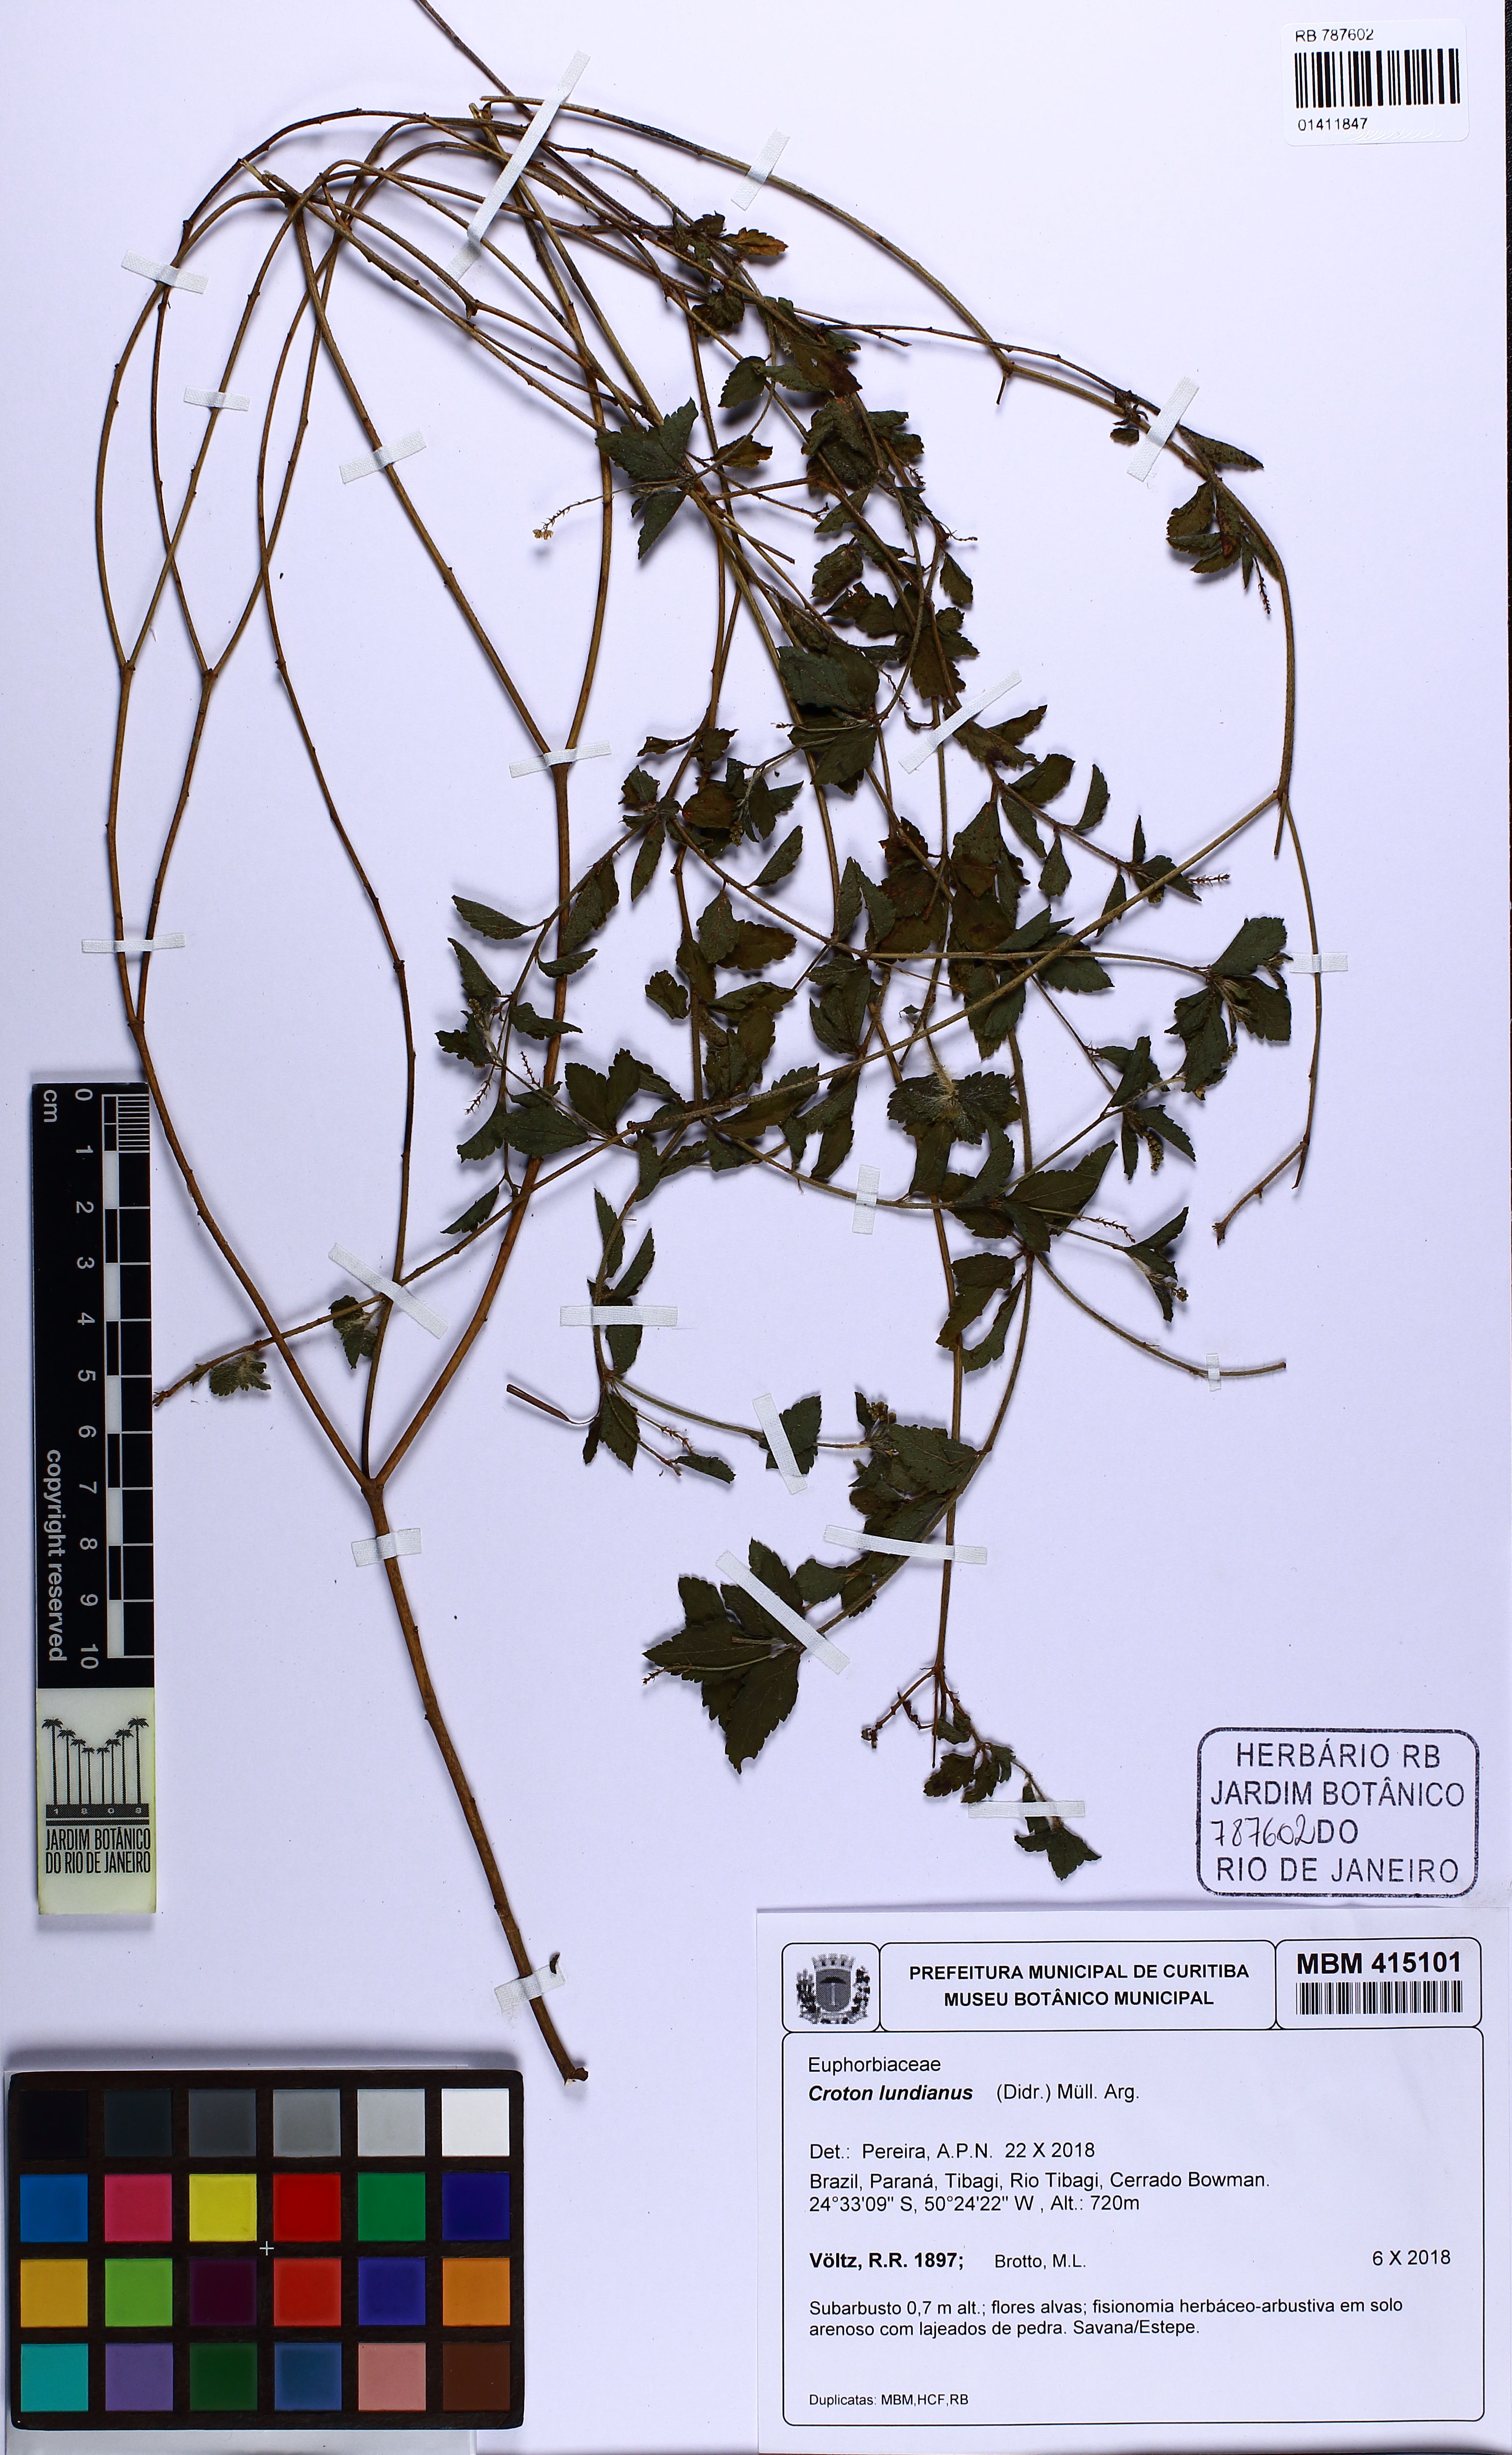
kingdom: Plantae
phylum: Tracheophyta
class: Magnoliopsida
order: Malpighiales
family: Euphorbiaceae
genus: Croton
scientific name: Croton lundianus
